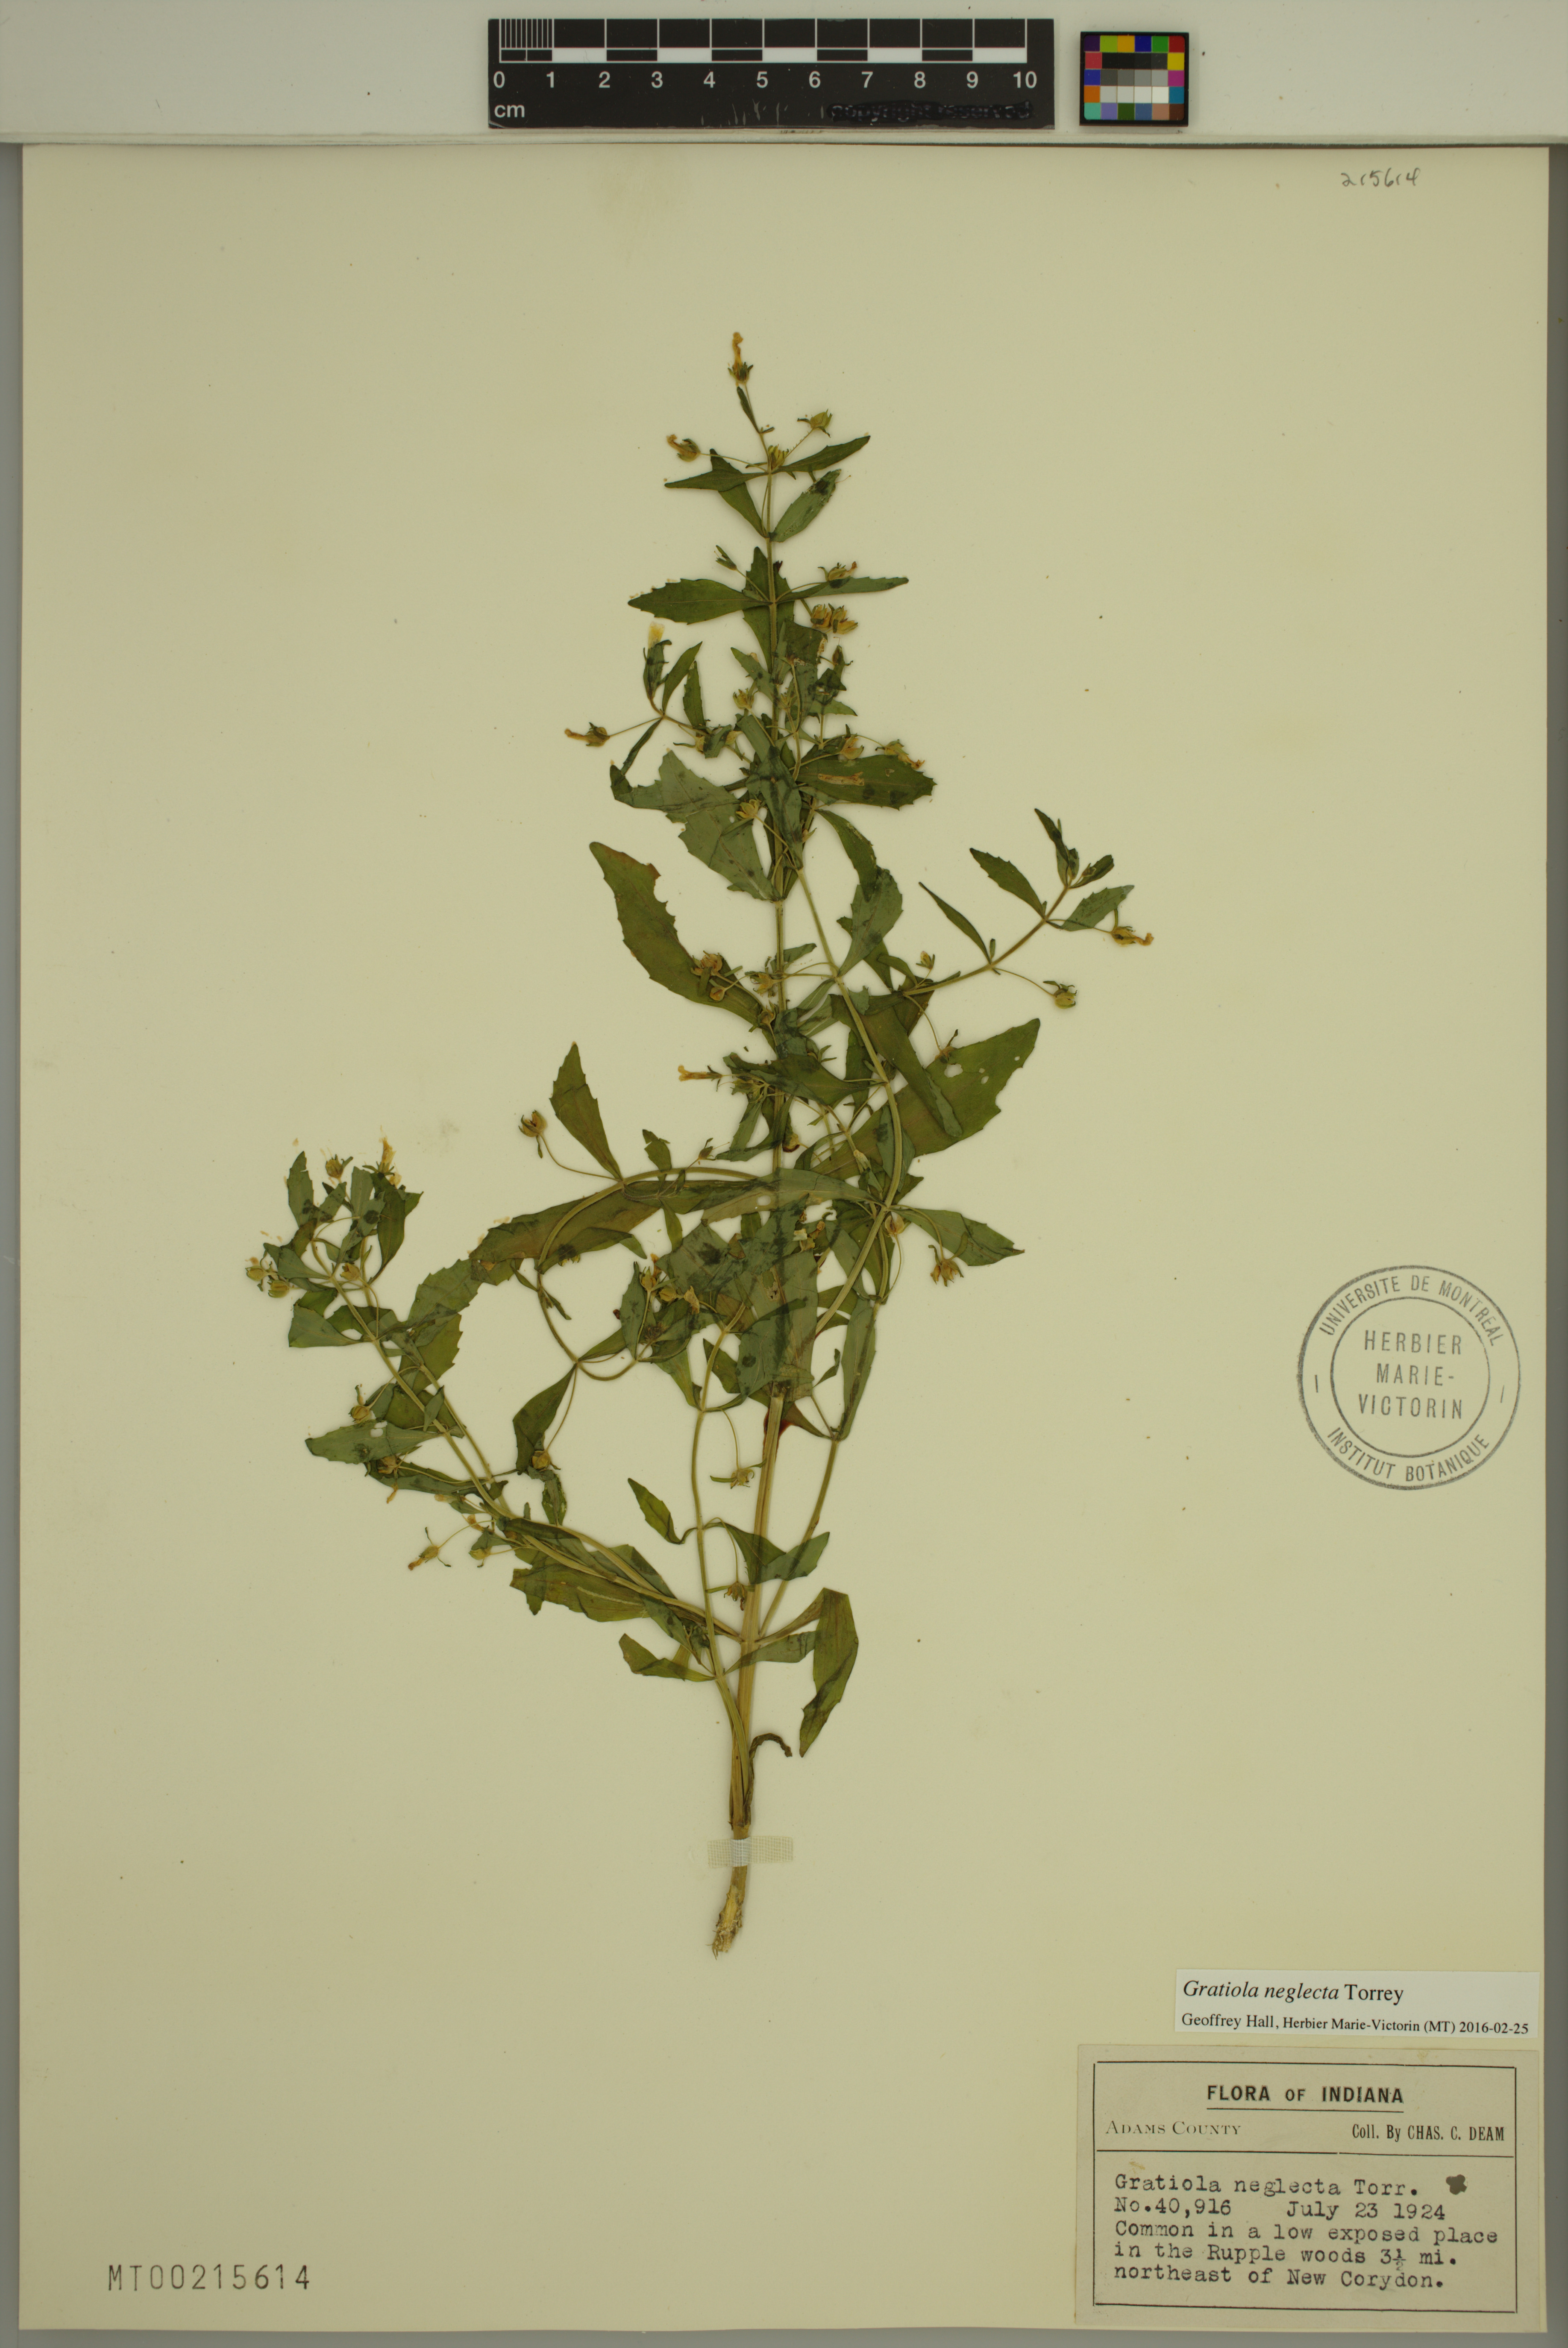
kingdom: Plantae
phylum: Tracheophyta
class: Magnoliopsida
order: Lamiales
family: Plantaginaceae
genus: Gratiola
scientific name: Gratiola neglecta
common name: American hedge-hyssop
